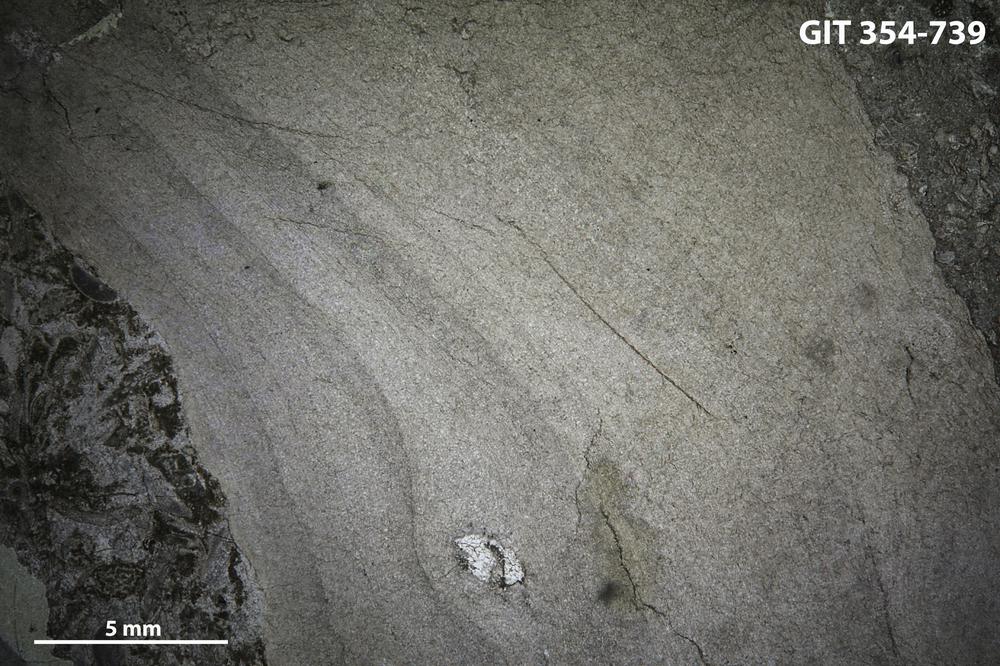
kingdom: Animalia
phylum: Porifera
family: Densastromatidae
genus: Densastroma
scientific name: Densastroma
